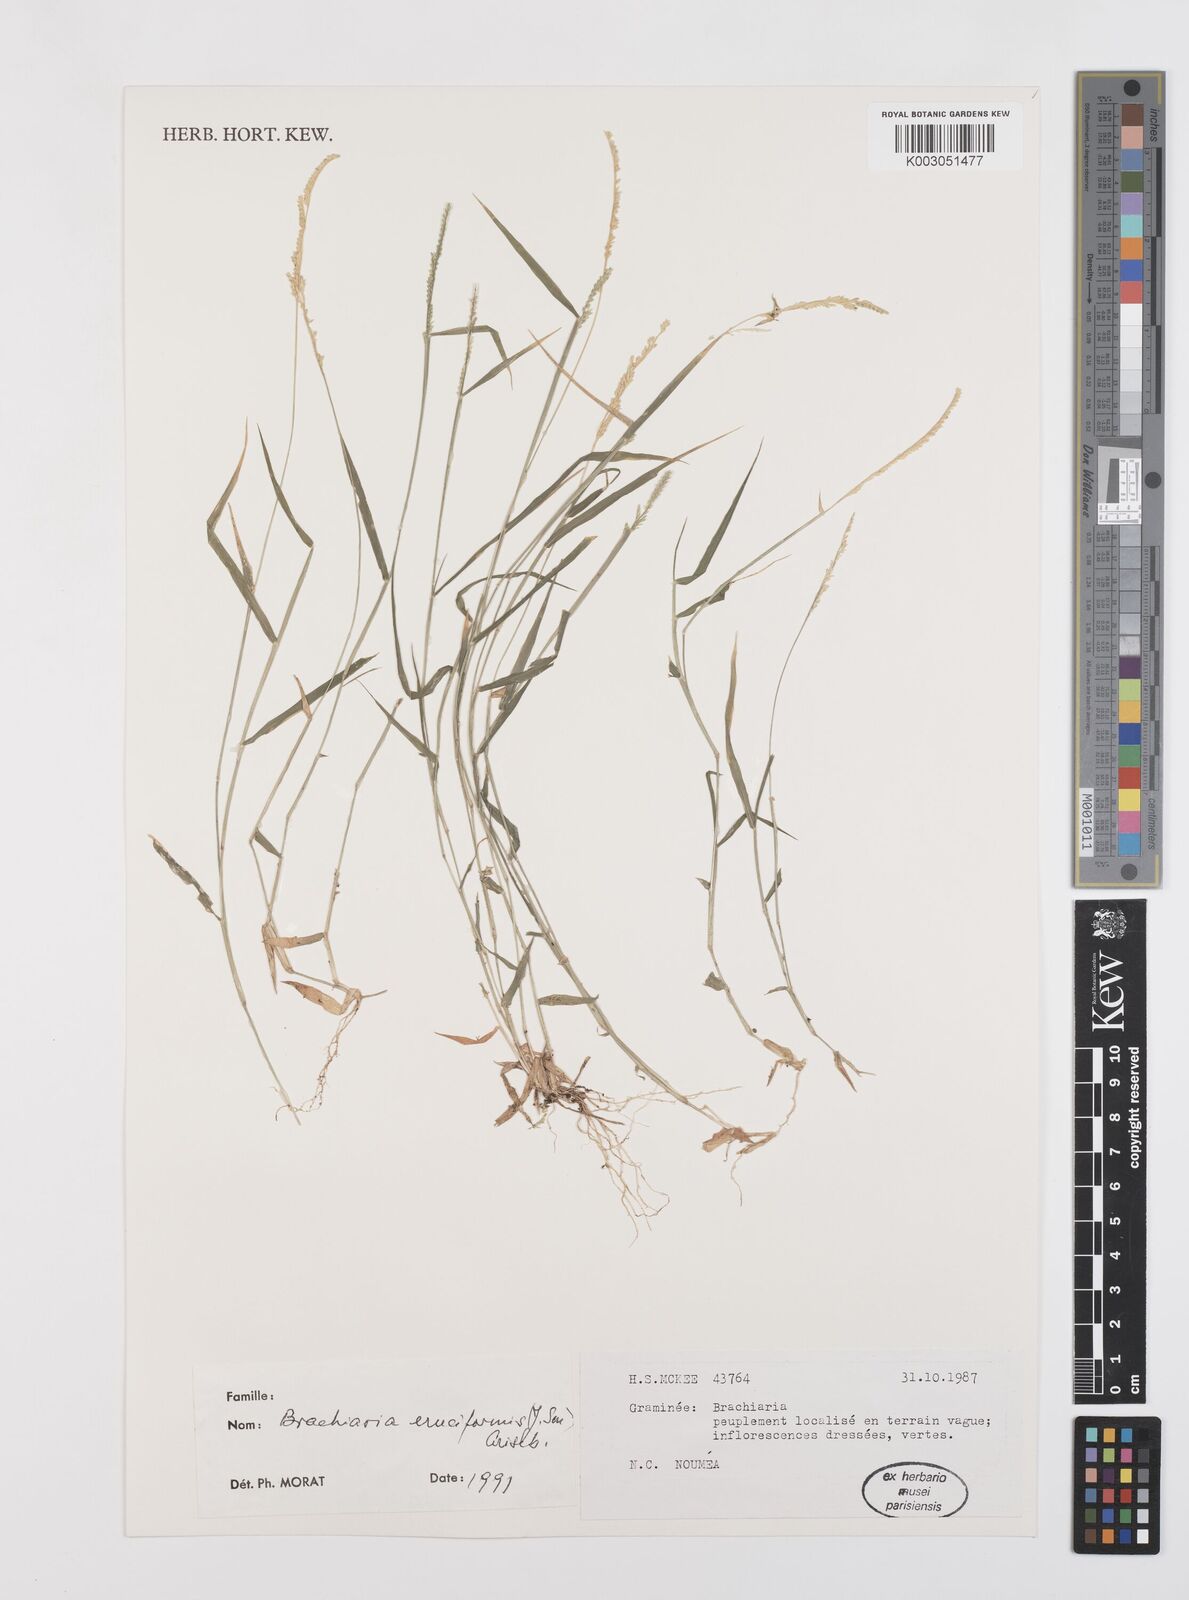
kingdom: Plantae
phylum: Tracheophyta
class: Liliopsida
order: Poales
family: Poaceae
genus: Moorochloa
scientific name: Moorochloa eruciformis
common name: Sweet signalgrass
